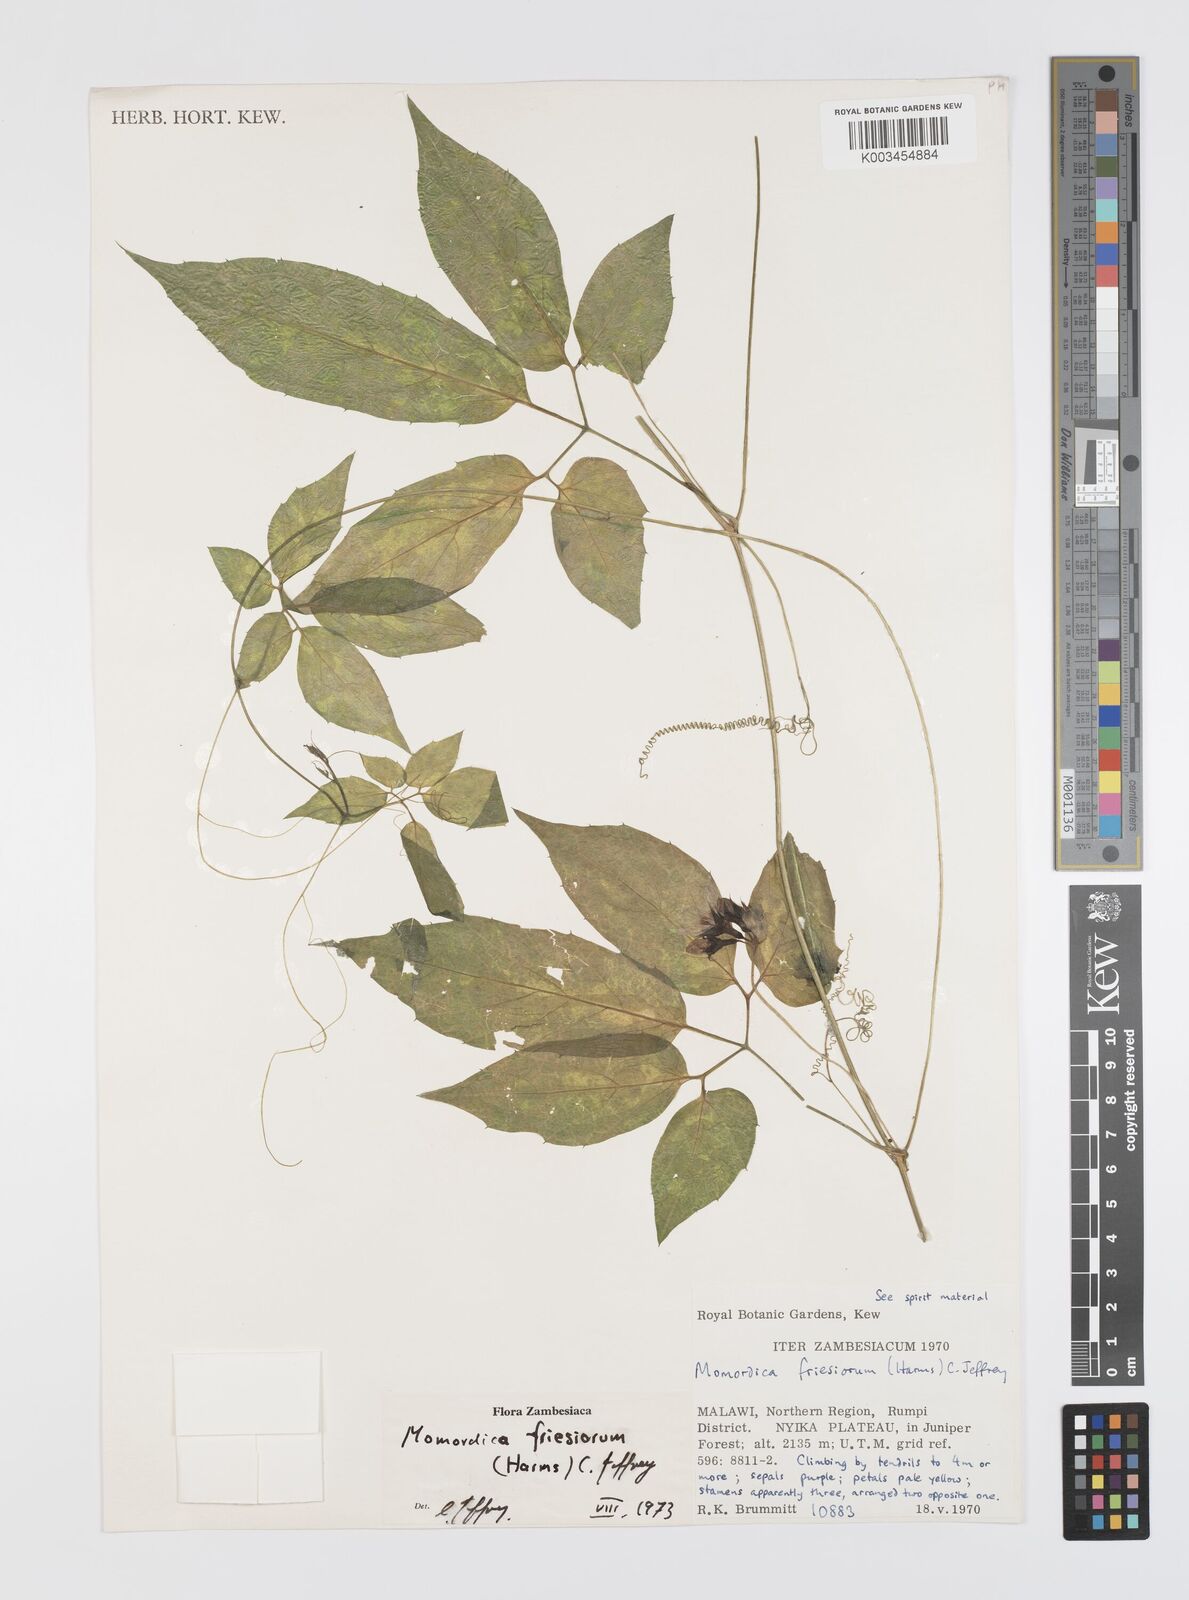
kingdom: Plantae
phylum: Tracheophyta
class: Magnoliopsida
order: Cucurbitales
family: Cucurbitaceae
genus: Momordica
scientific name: Momordica friesiorum
